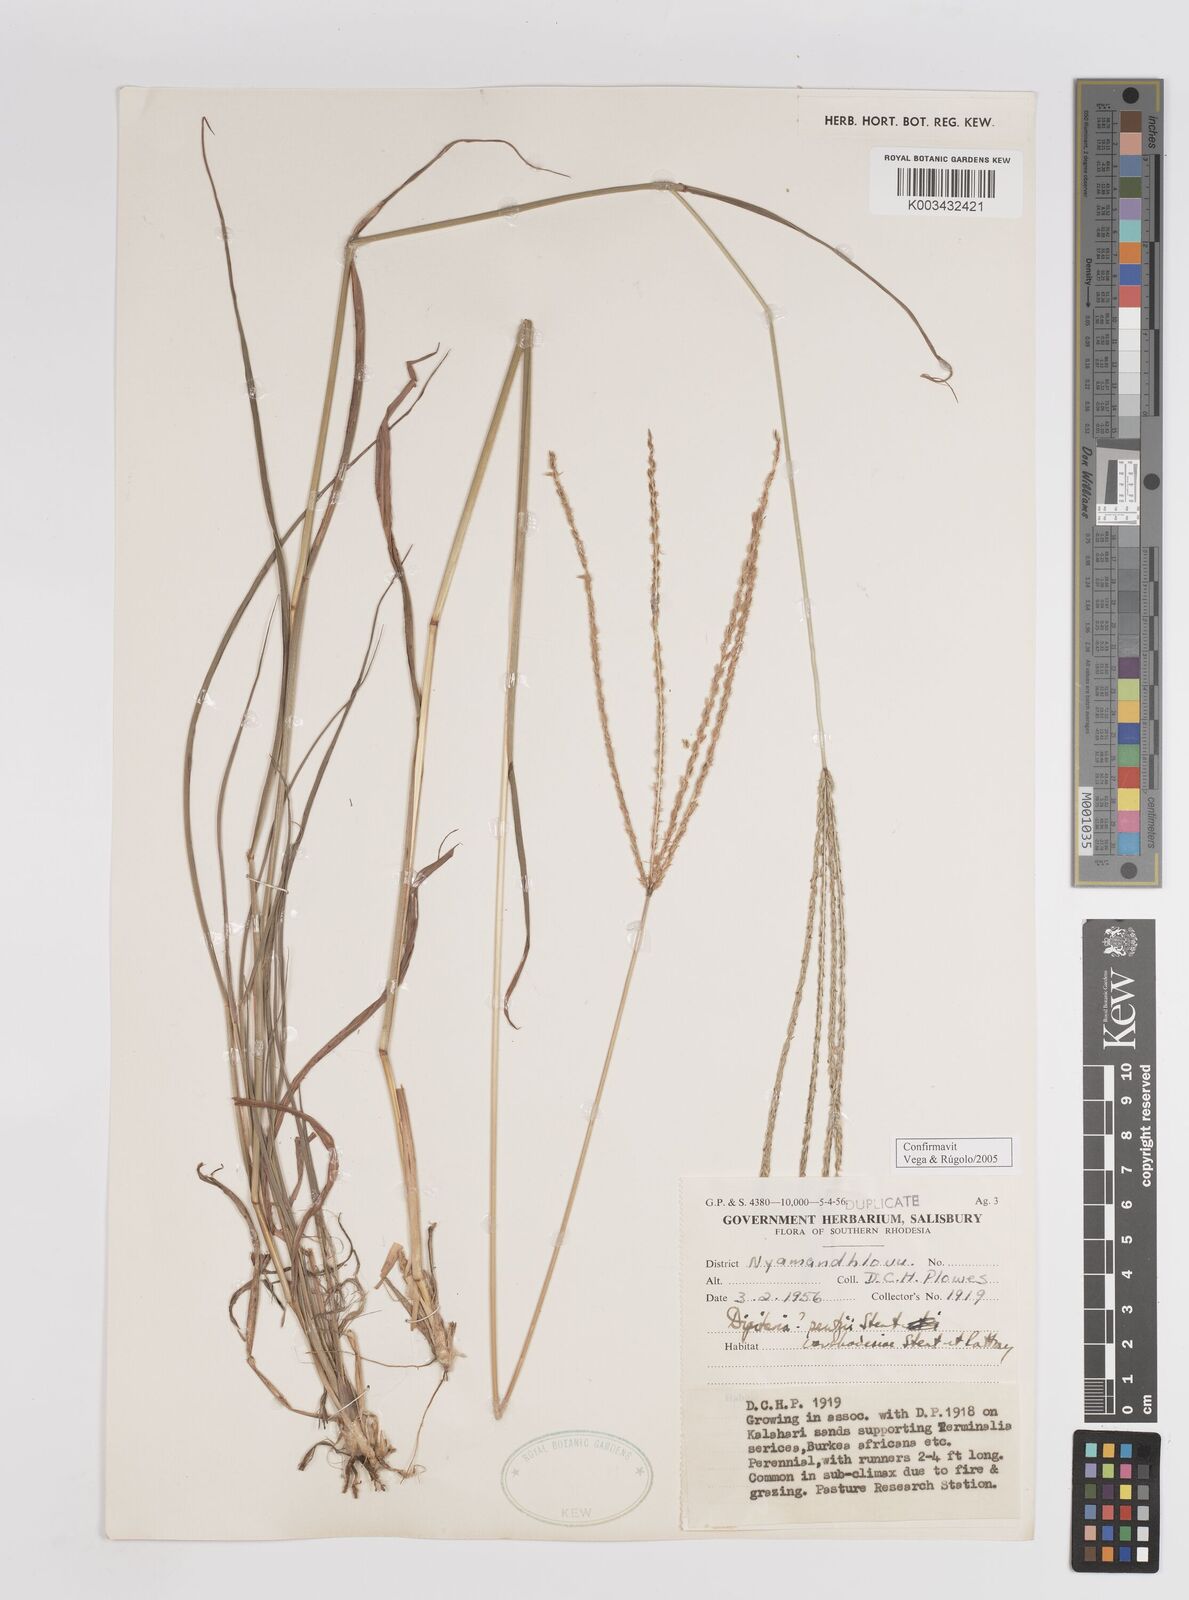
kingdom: Plantae
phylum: Tracheophyta
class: Liliopsida
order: Poales
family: Poaceae
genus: Digitaria
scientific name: Digitaria eriantha
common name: Digitgrass
